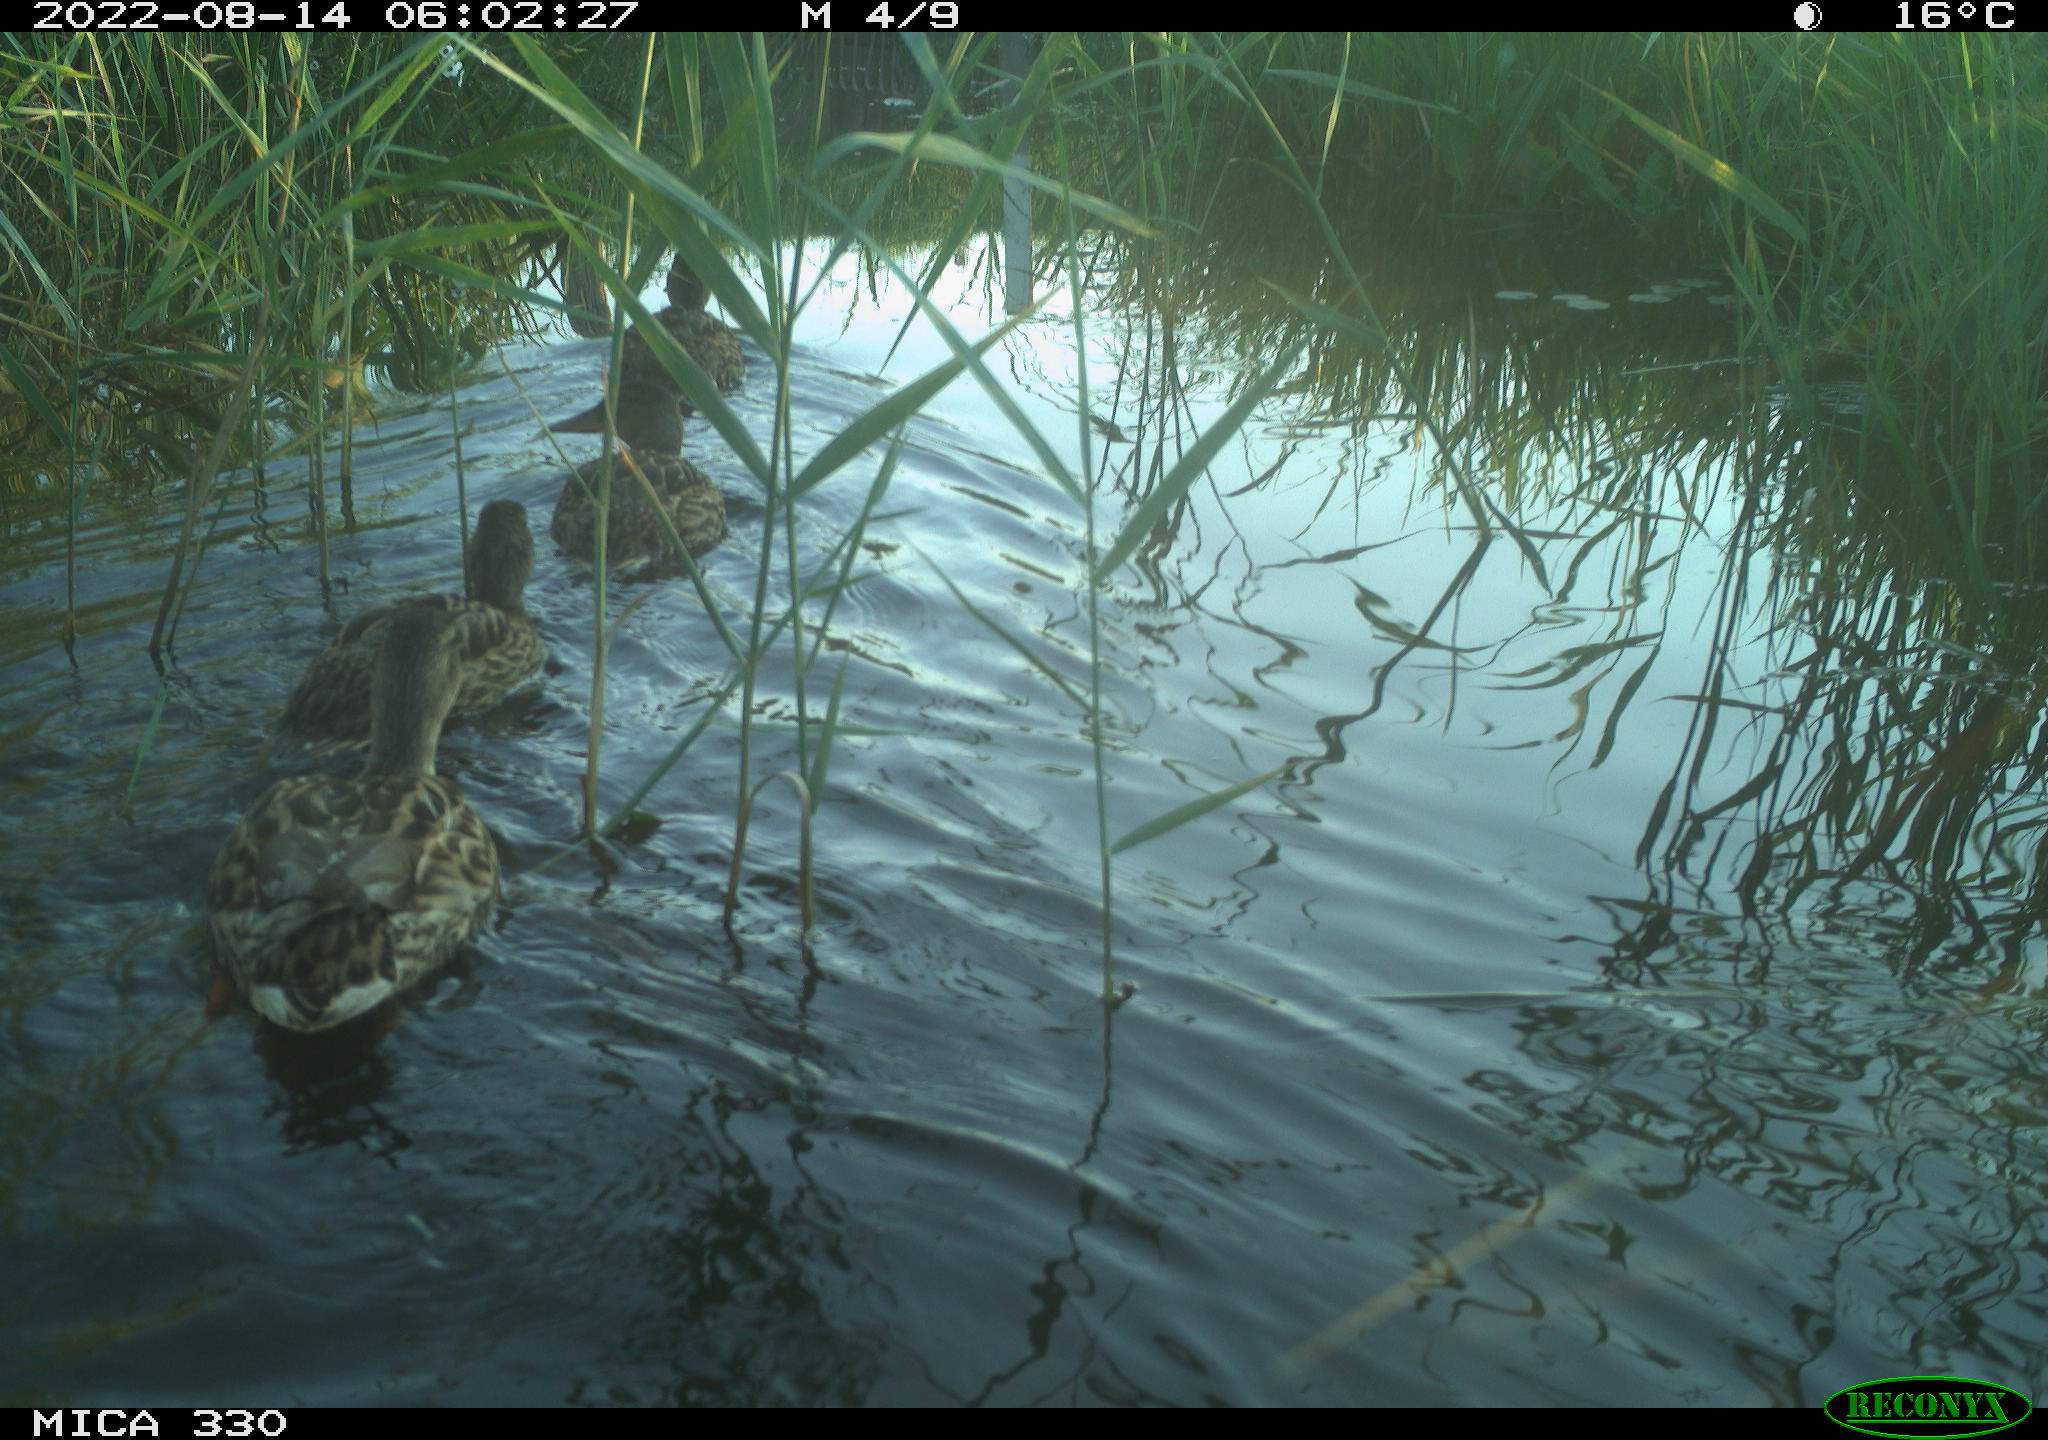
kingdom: Animalia
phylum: Chordata
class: Aves
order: Anseriformes
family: Anatidae
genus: Anas
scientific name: Anas platyrhynchos
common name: Mallard
